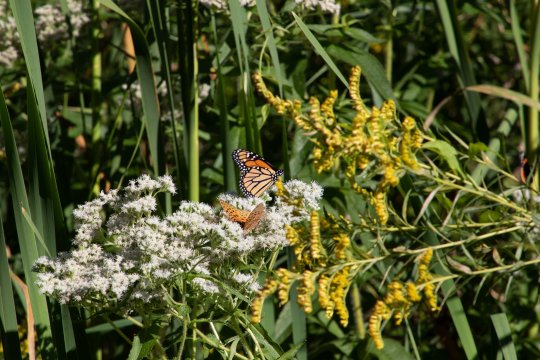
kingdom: Animalia
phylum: Arthropoda
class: Insecta
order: Lepidoptera
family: Nymphalidae
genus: Danaus
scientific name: Danaus plexippus
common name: Monarch
